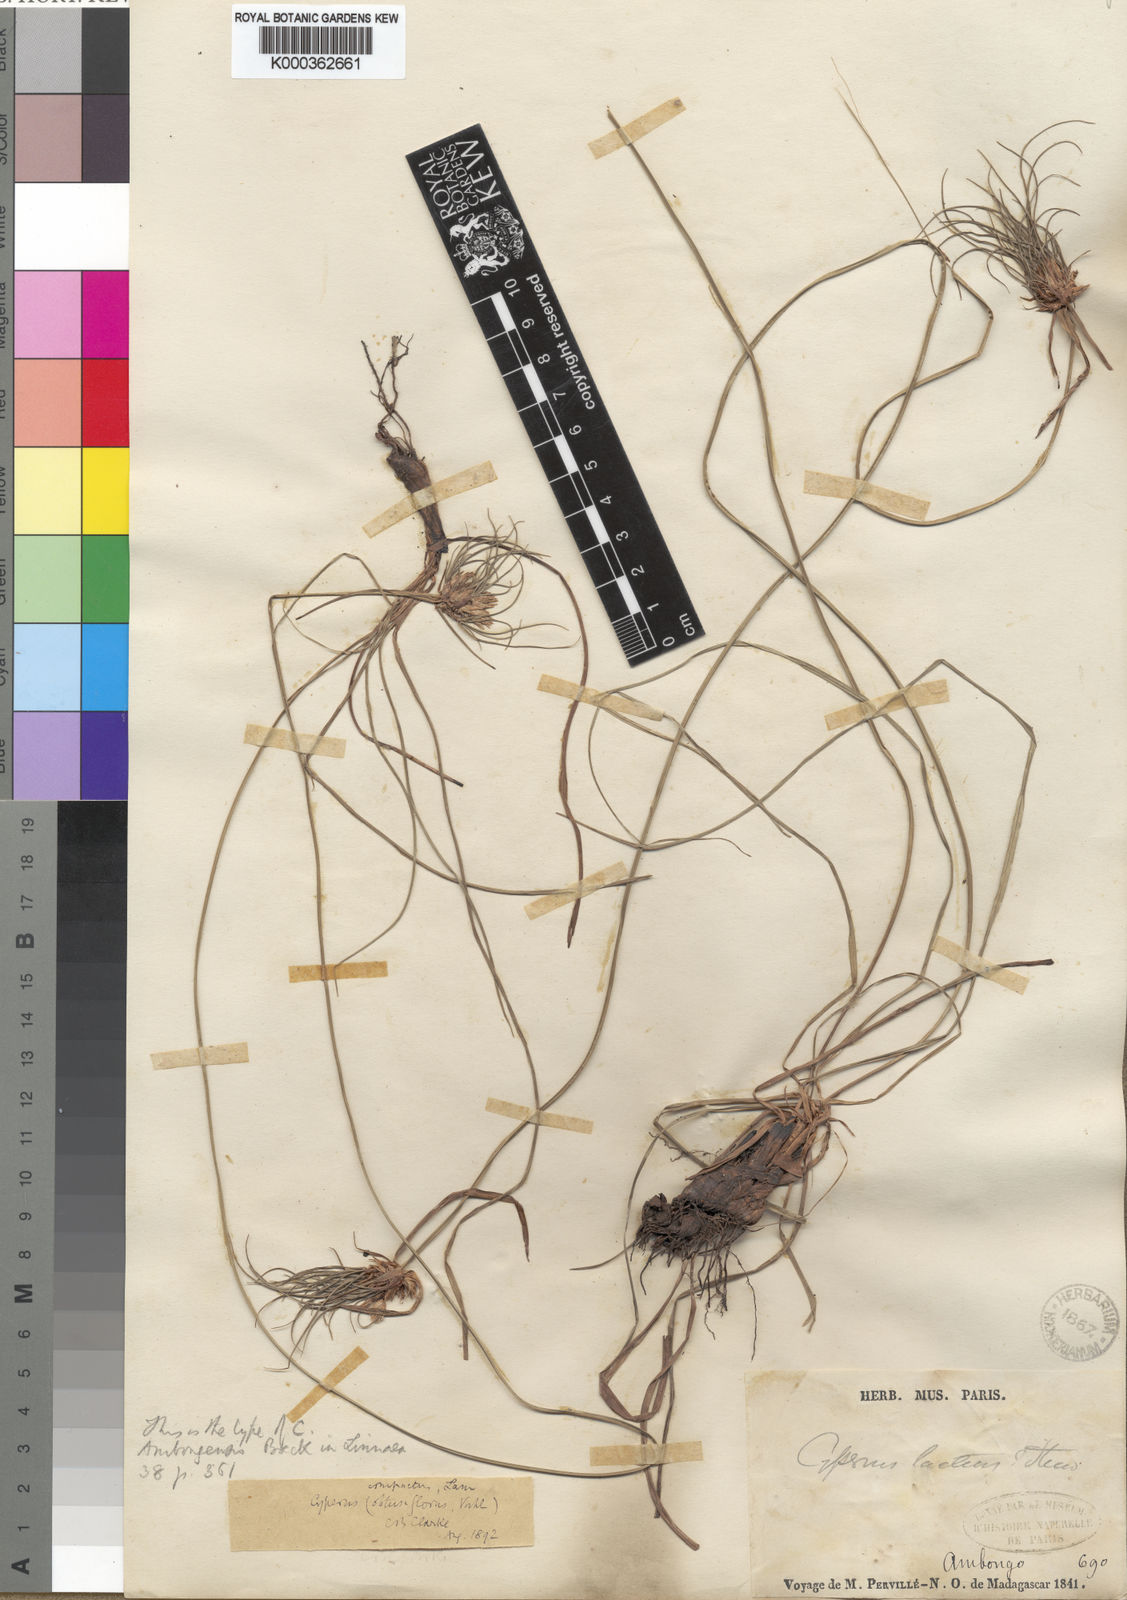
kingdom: Plantae
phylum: Tracheophyta
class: Liliopsida
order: Poales
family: Cyperaceae
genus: Cyperus
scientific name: Cyperus niveus
